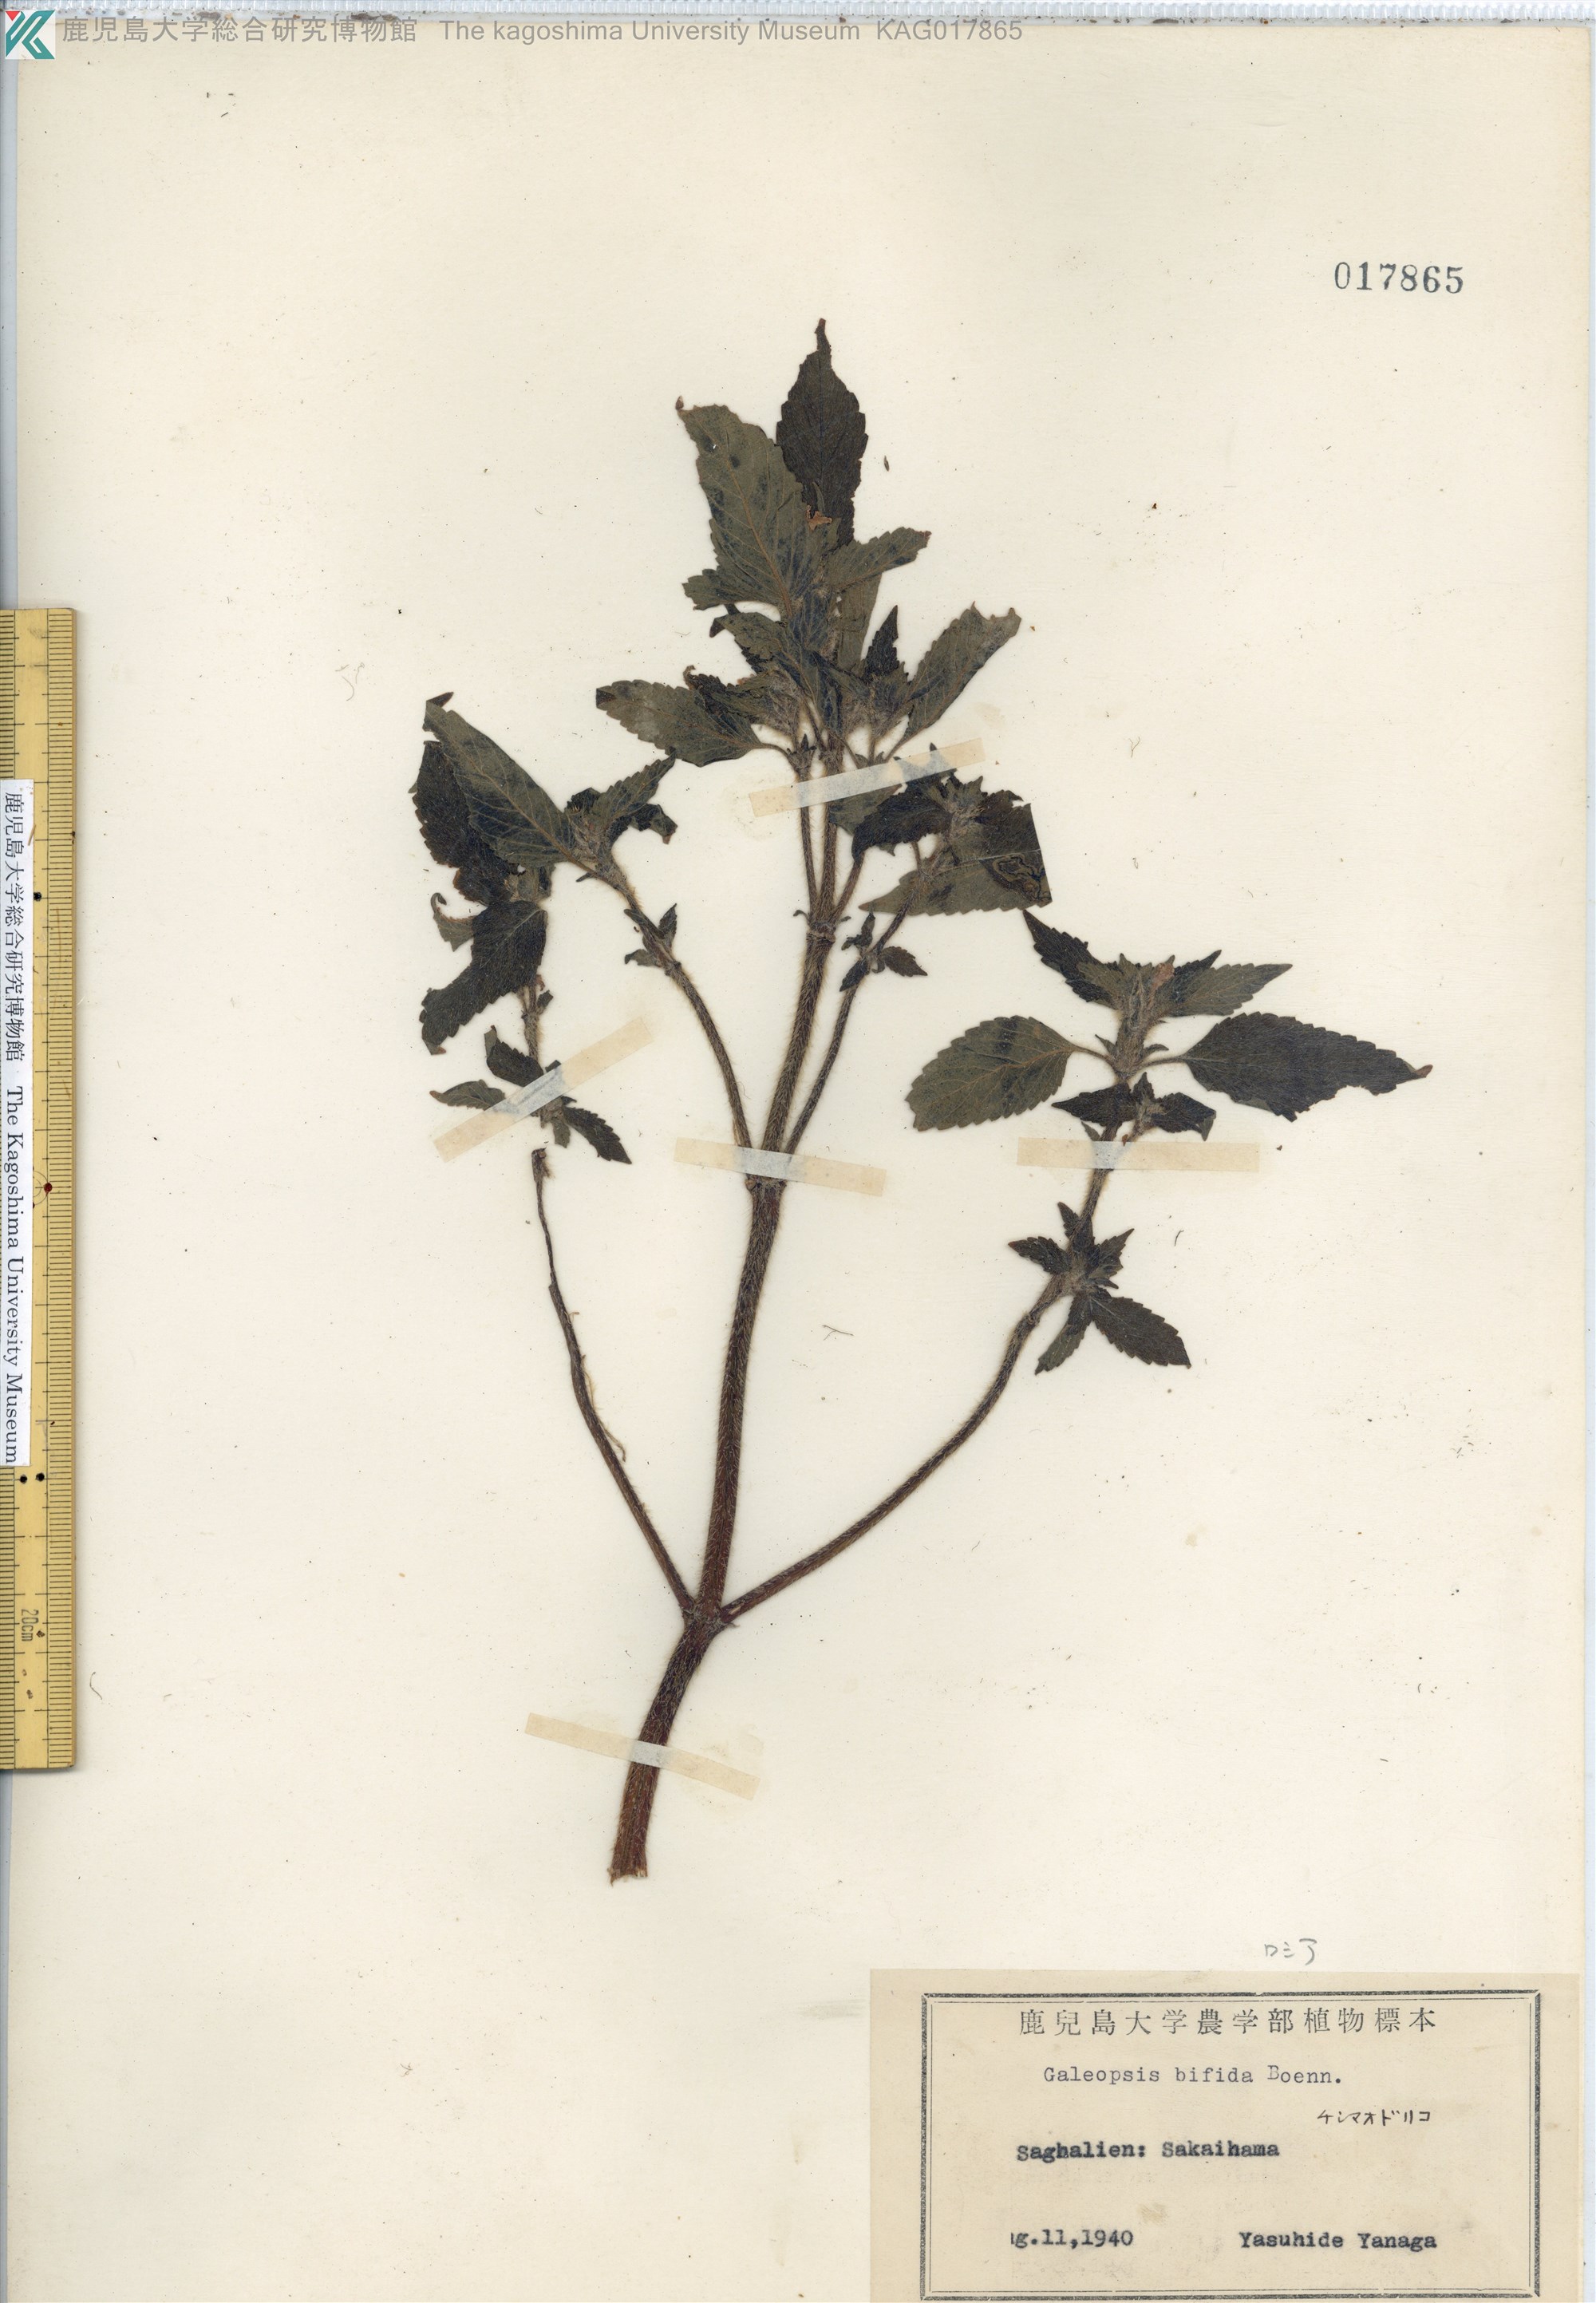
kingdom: Plantae
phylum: Tracheophyta
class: Magnoliopsida
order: Lamiales
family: Lamiaceae
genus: Galeopsis
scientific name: Galeopsis bifida
